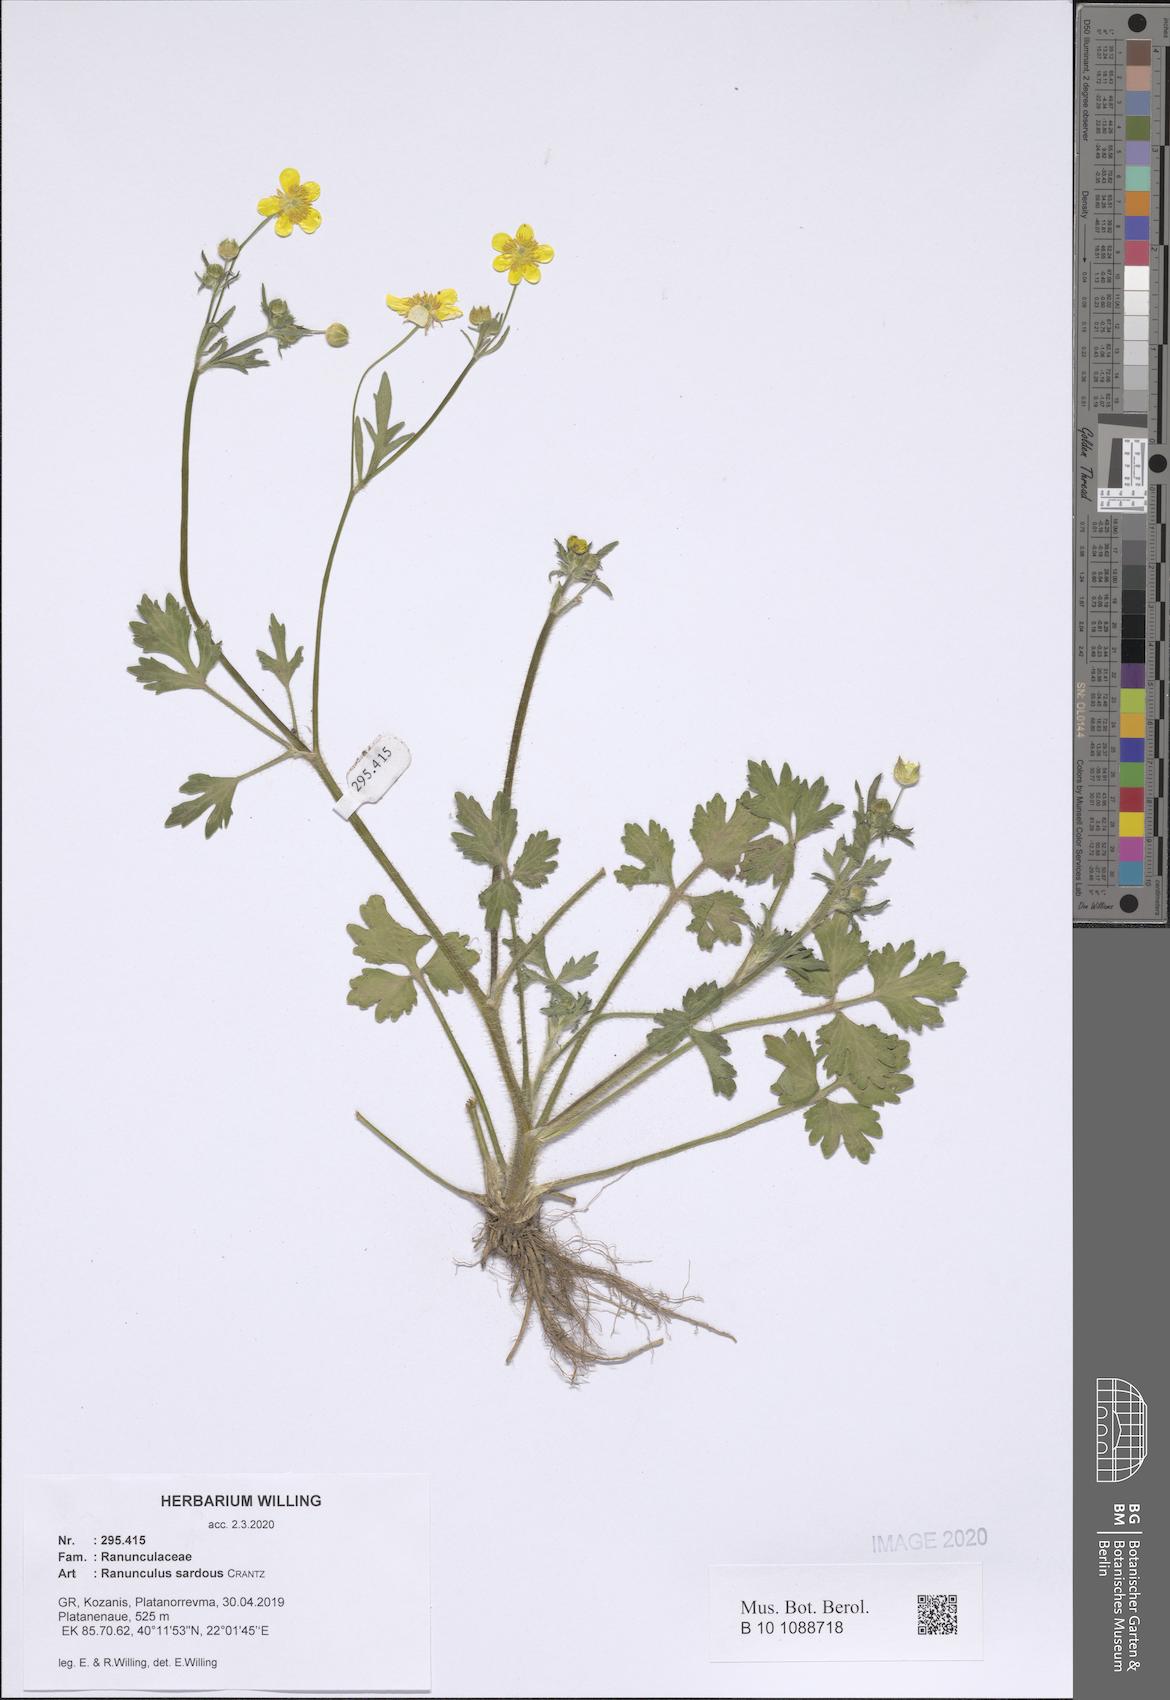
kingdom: Plantae
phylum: Tracheophyta
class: Magnoliopsida
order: Ranunculales
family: Ranunculaceae
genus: Ranunculus
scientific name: Ranunculus sardous
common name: Hairy buttercup
